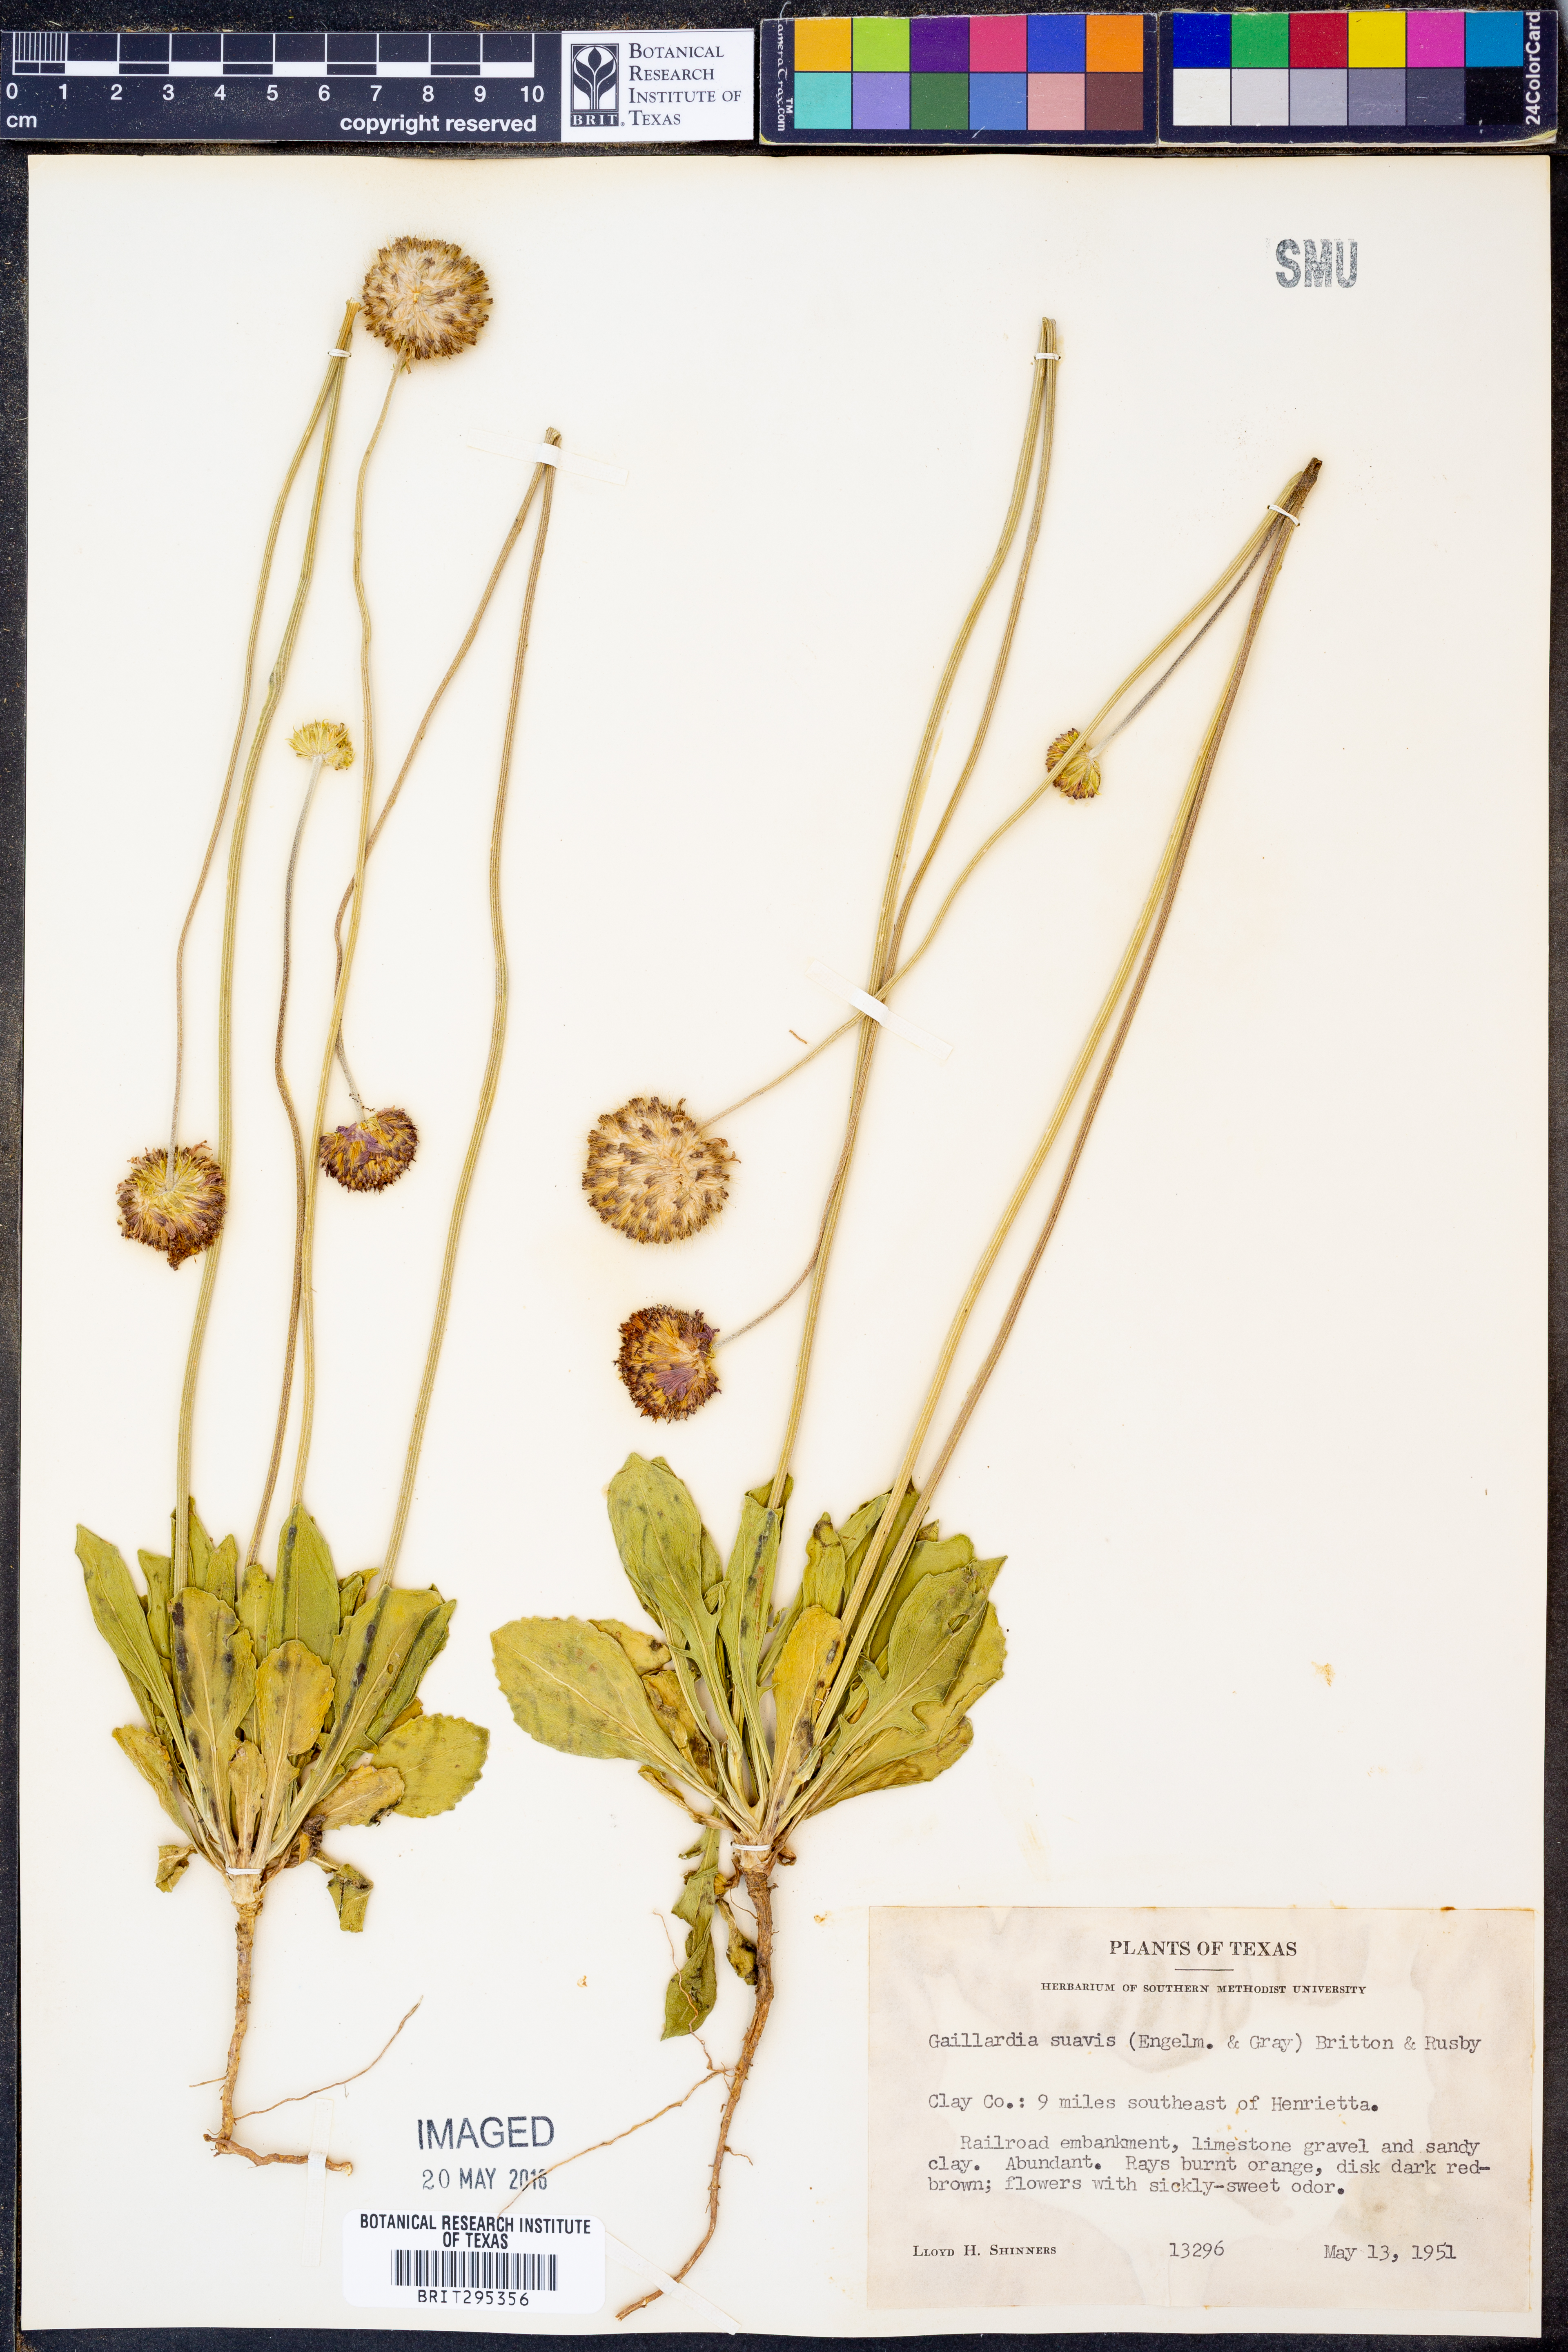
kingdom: Plantae
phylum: Tracheophyta
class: Magnoliopsida
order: Asterales
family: Asteraceae
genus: Gaillardia
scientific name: Gaillardia suavis
